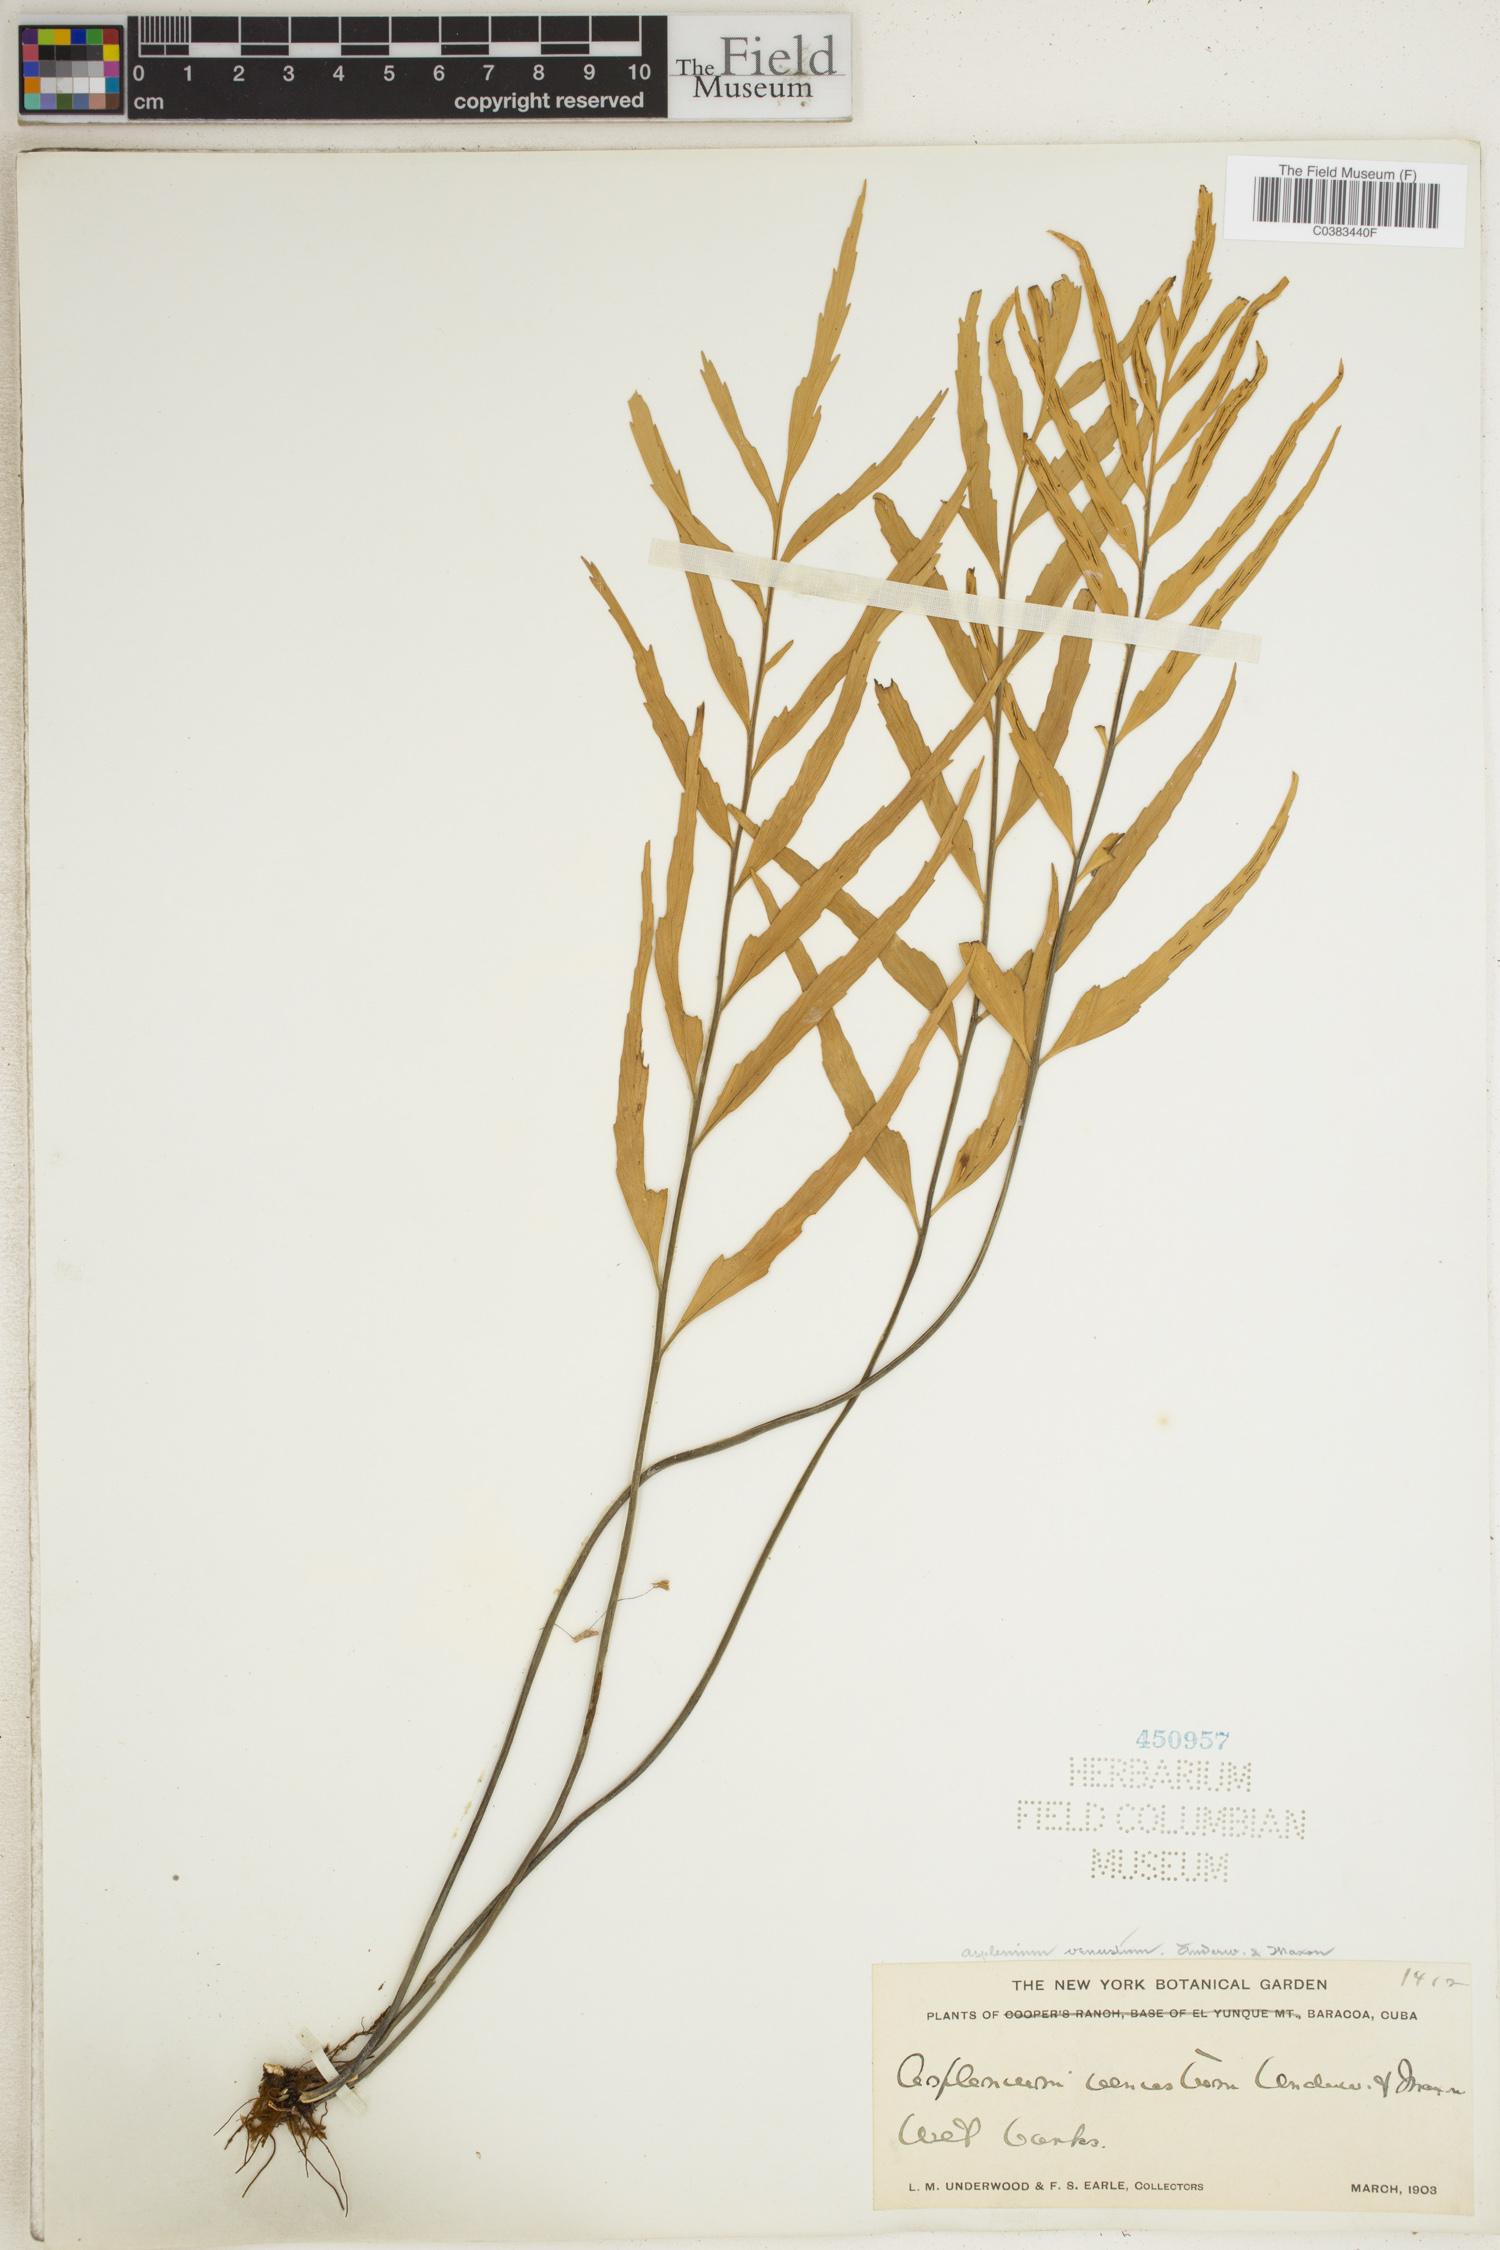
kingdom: Plantae
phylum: Tracheophyta
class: Polypodiopsida
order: Polypodiales
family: Aspleniaceae
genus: Asplenium
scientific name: Asplenium venustum
